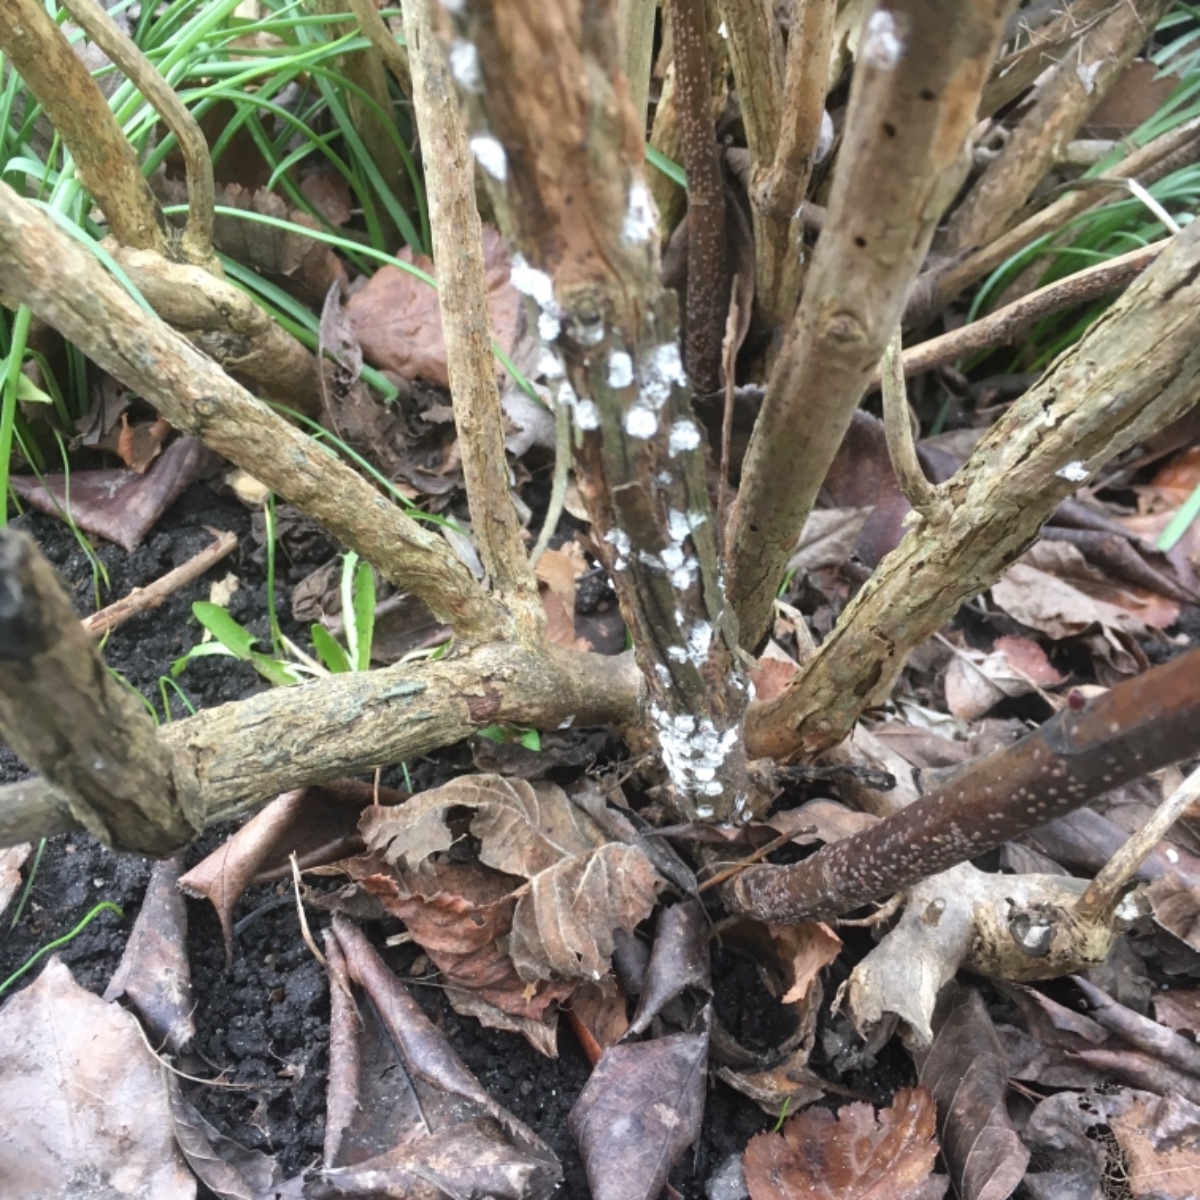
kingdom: Fungi
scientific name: Fungi
